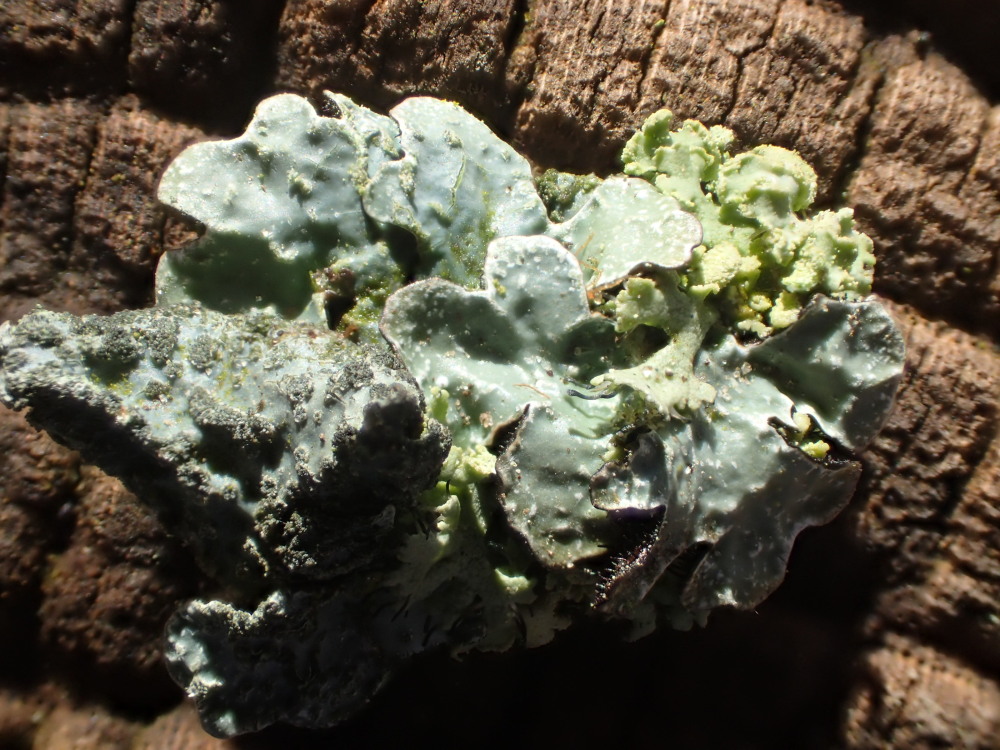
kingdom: Fungi
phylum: Ascomycota
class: Lecanoromycetes
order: Lecanorales
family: Parmeliaceae
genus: Parmelia
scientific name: Parmelia sulcata
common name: rynket skållav
